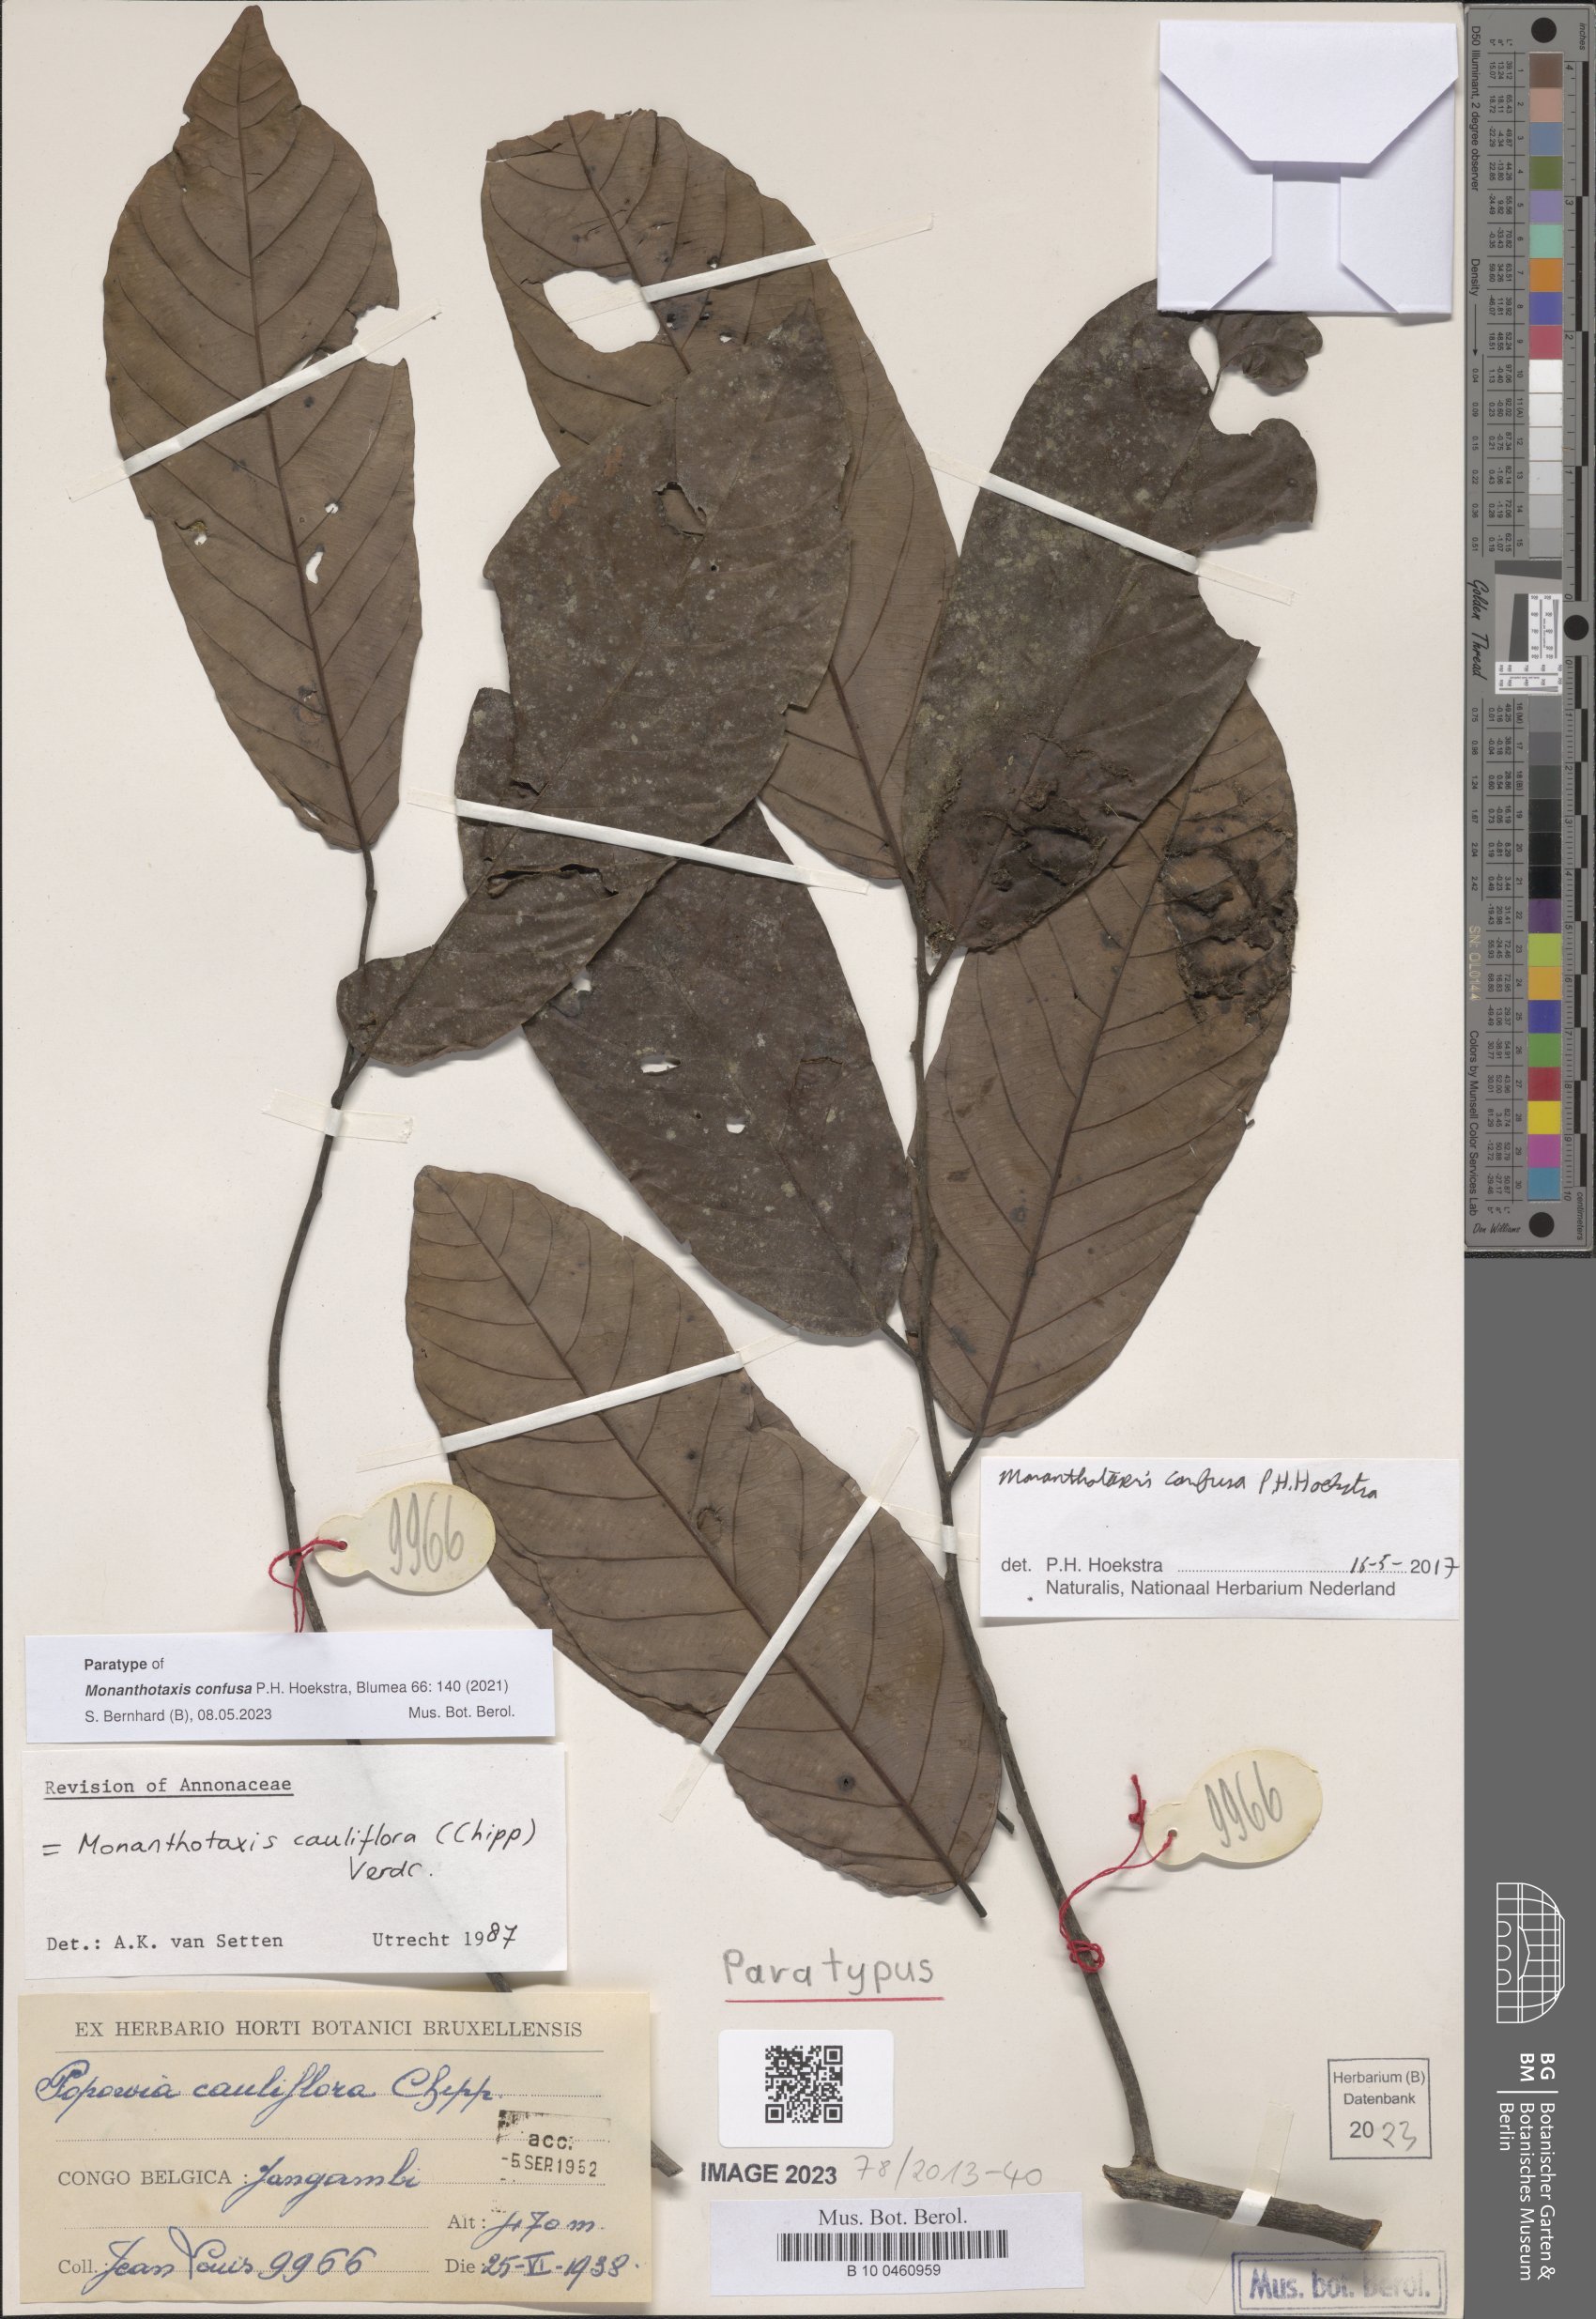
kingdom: Plantae
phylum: Tracheophyta
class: Magnoliopsida
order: Magnoliales
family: Annonaceae
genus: Monanthotaxis
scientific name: Monanthotaxis
